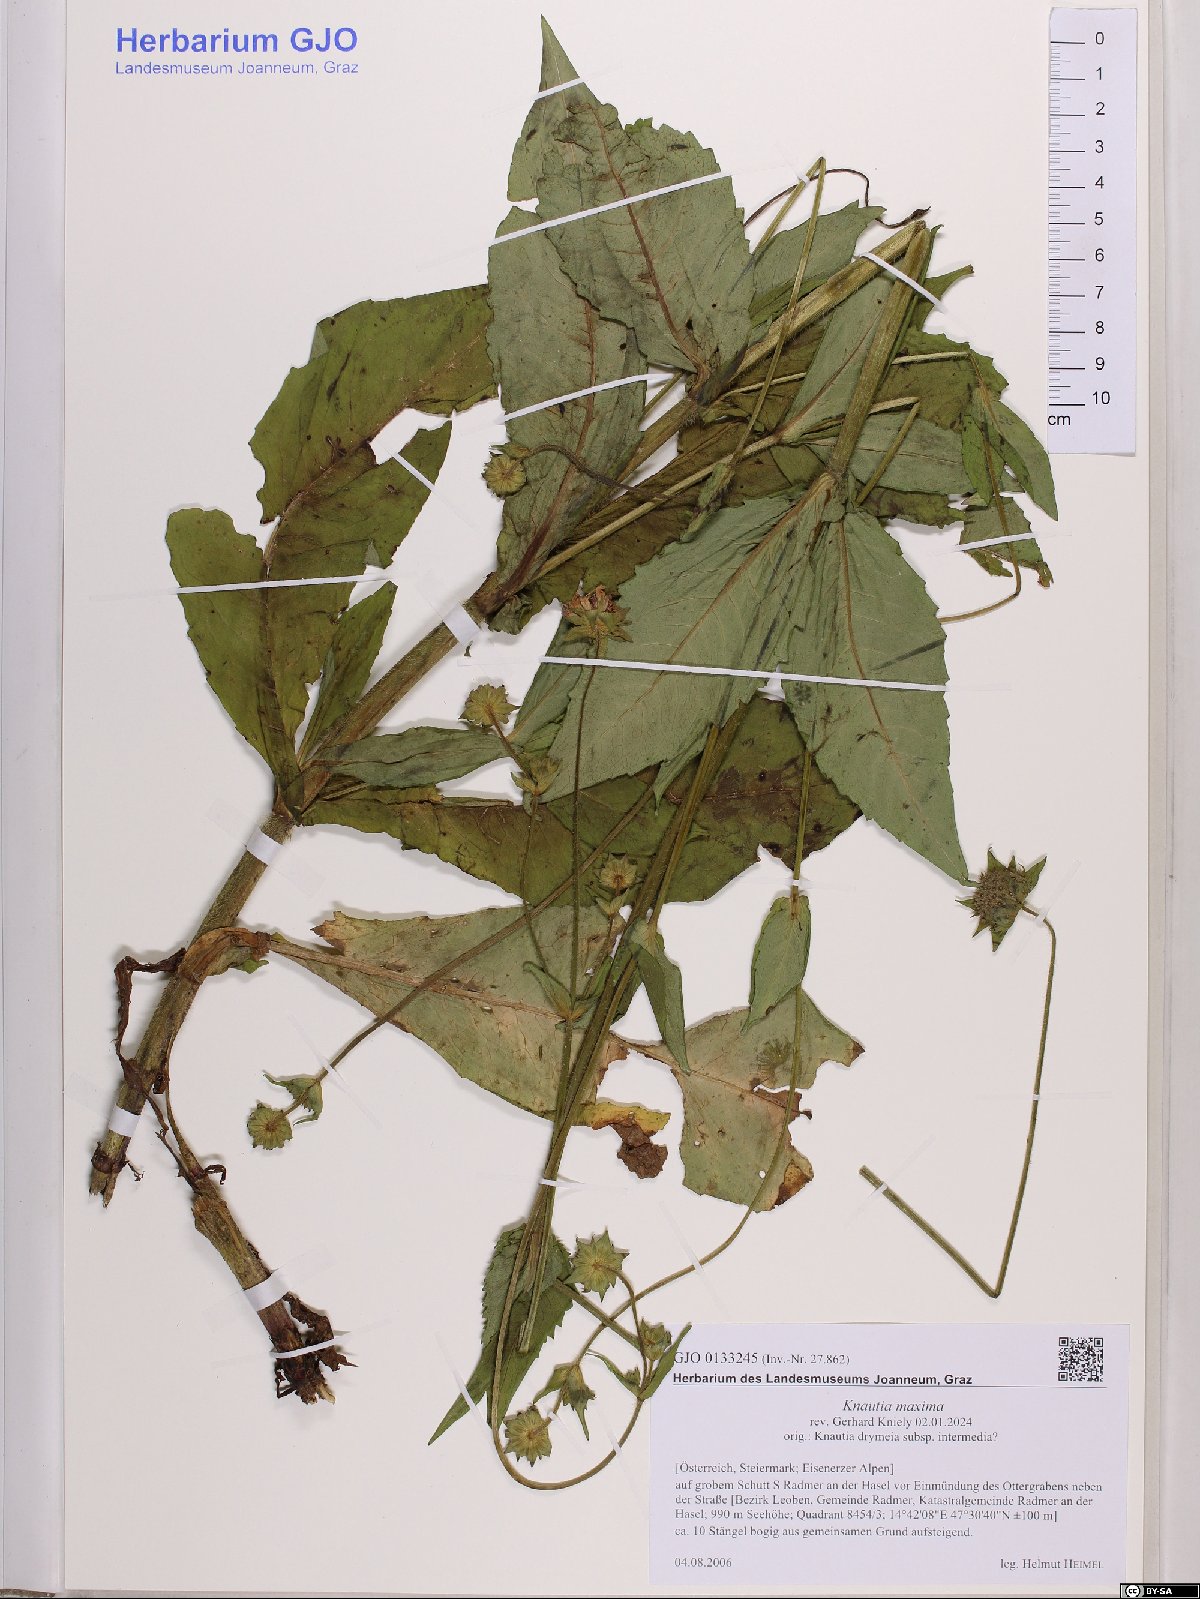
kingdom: Plantae
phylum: Tracheophyta
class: Magnoliopsida
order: Dipsacales
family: Caprifoliaceae
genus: Knautia
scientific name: Knautia dipsacifolia
